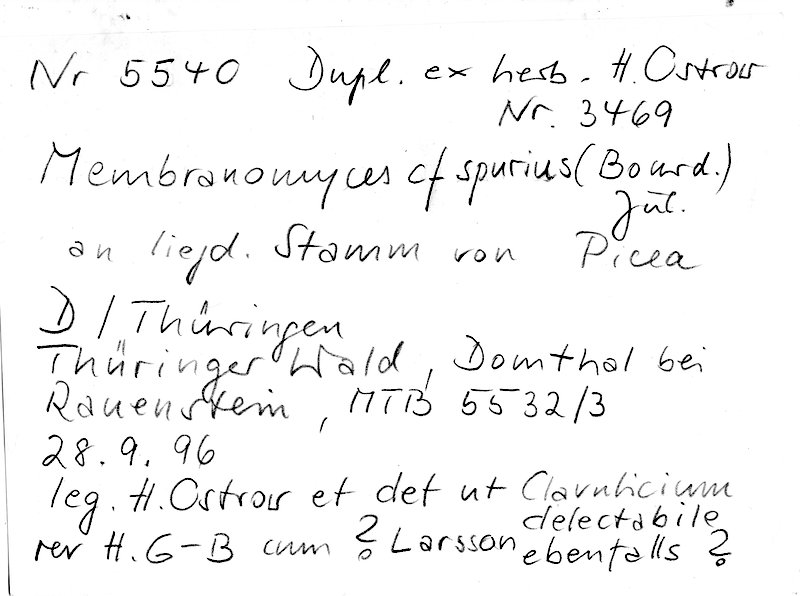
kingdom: Fungi
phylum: Basidiomycota
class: Agaricomycetes
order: Cantharellales
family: Hydnaceae
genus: Membranomyces
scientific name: Membranomyces spurius
